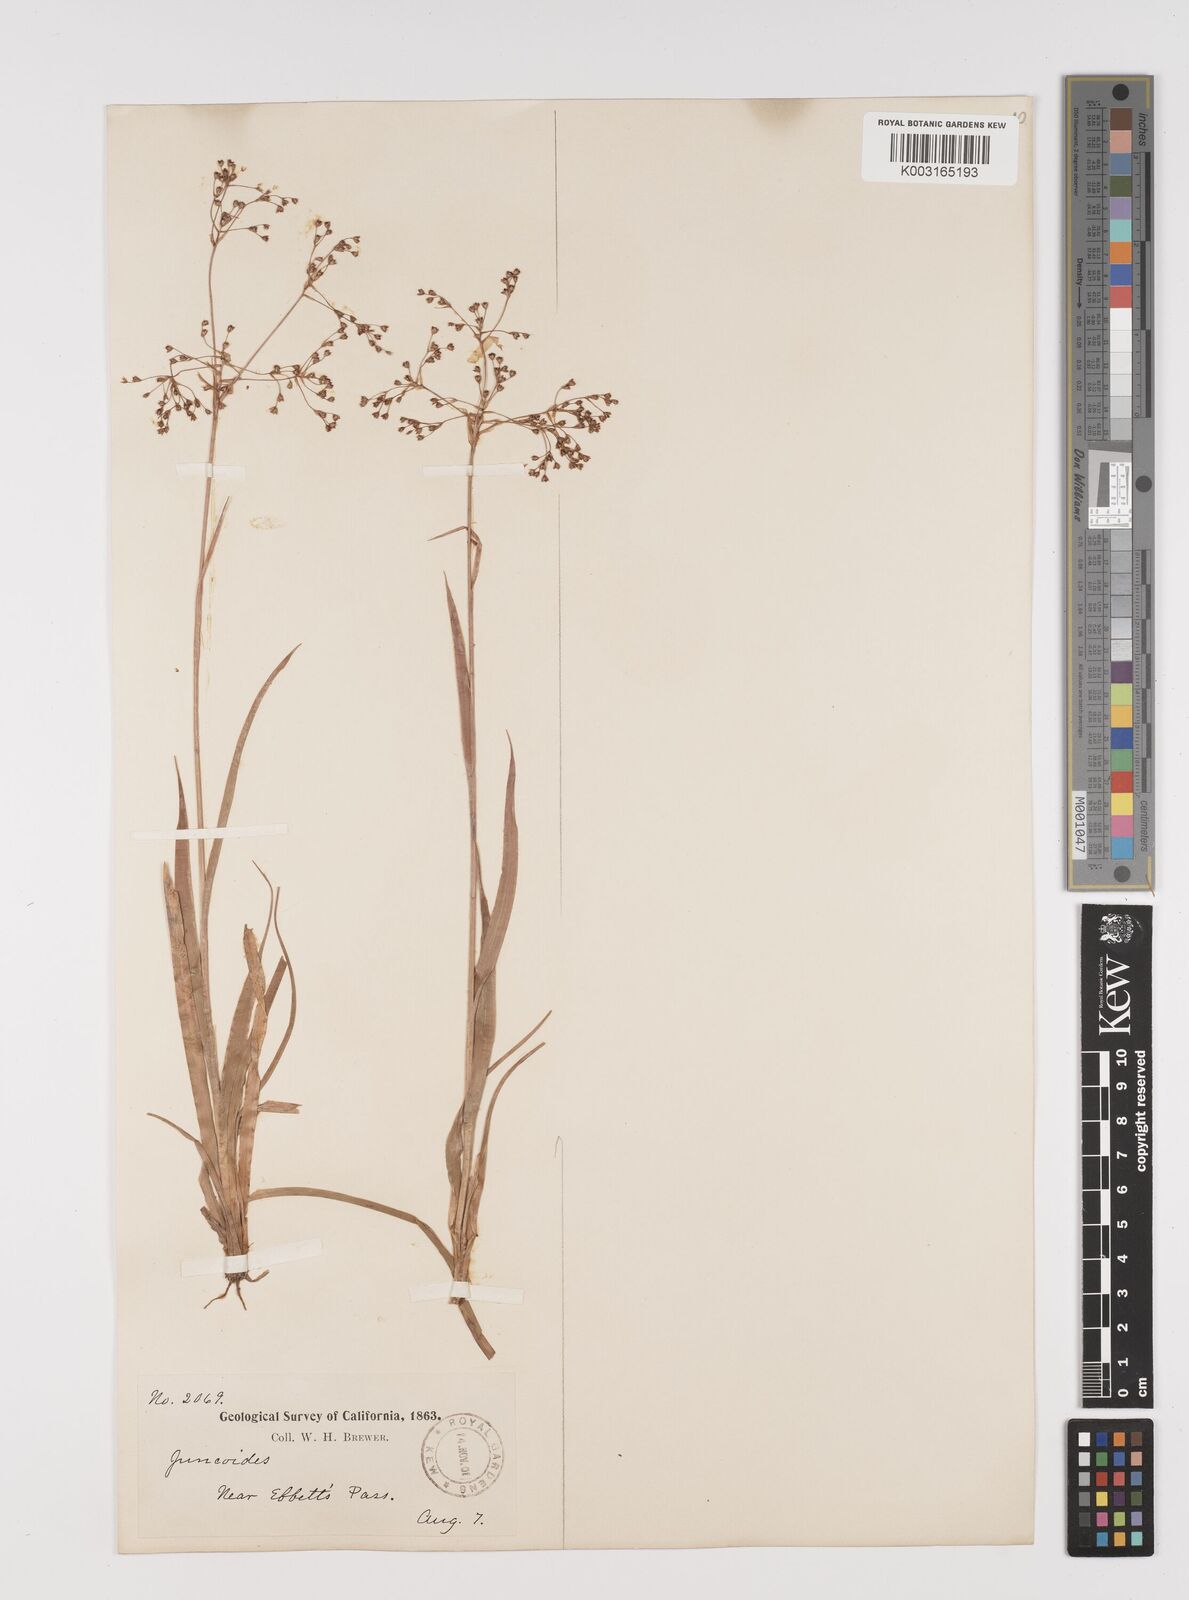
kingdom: Plantae
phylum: Tracheophyta
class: Liliopsida
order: Poales
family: Juncaceae
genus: Luzula
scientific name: Luzula
